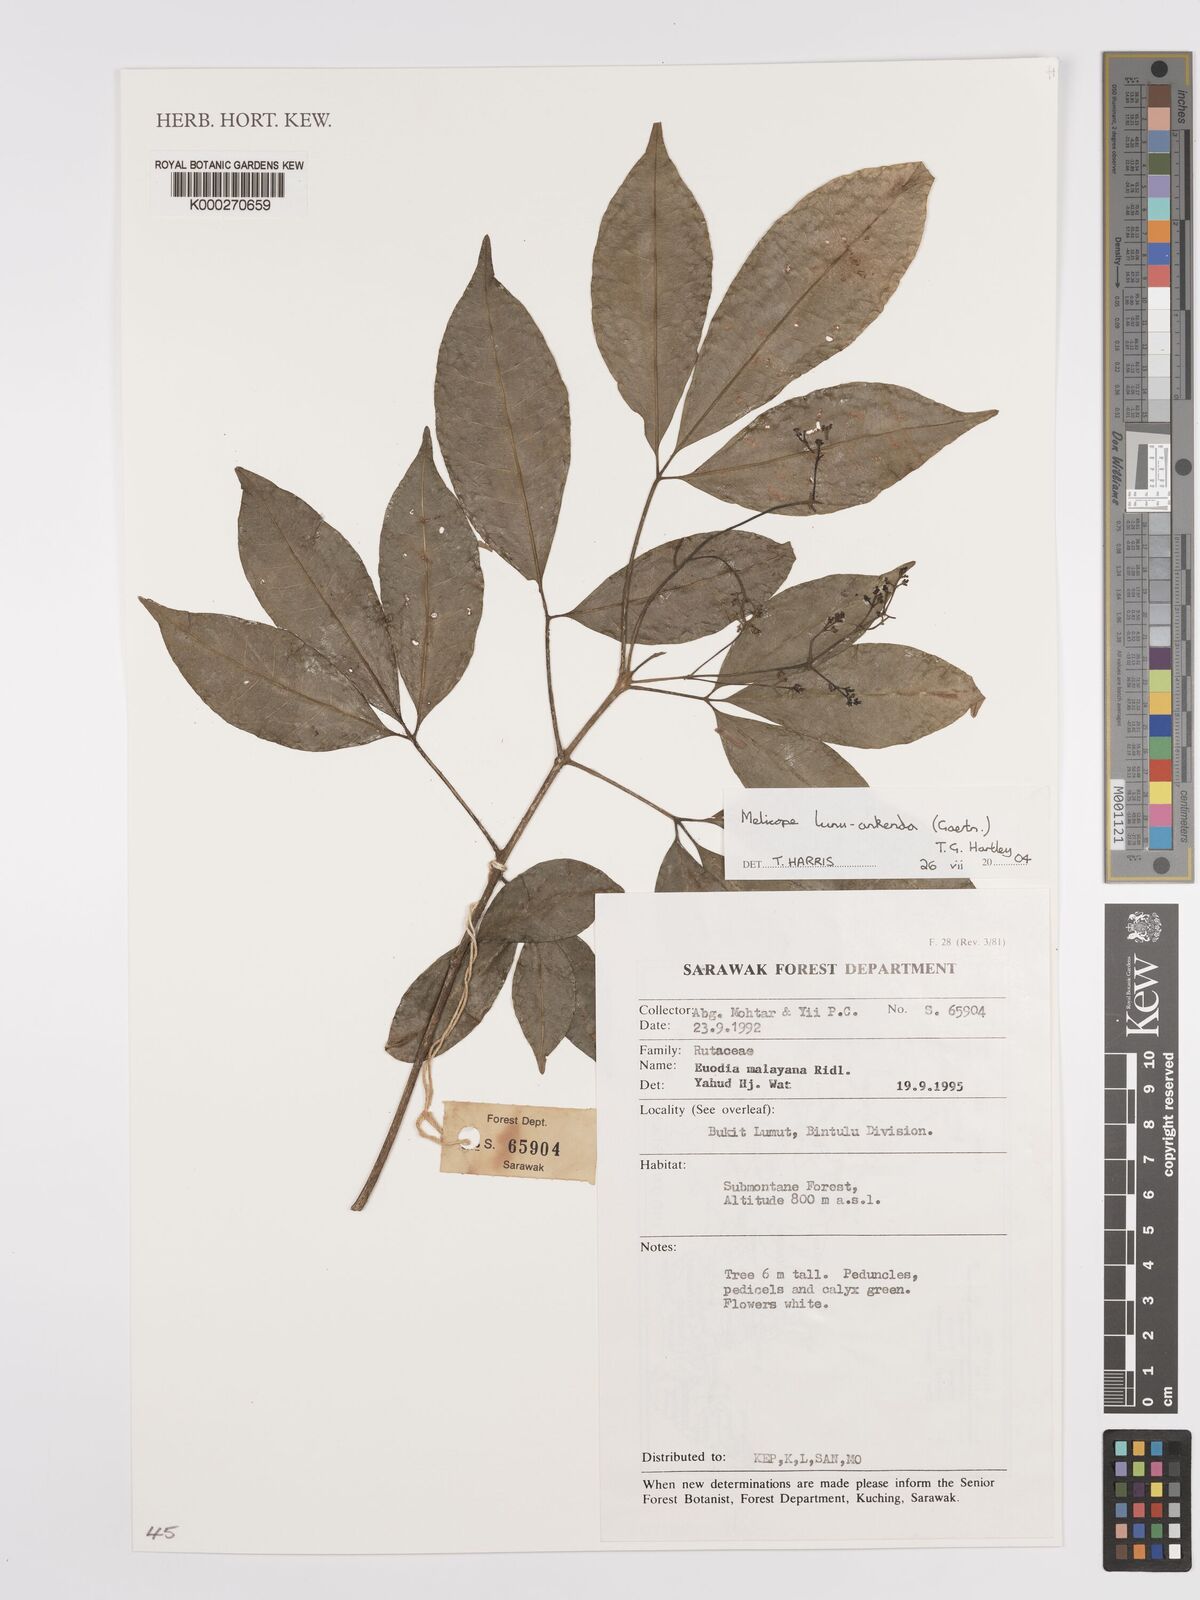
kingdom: Plantae
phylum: Tracheophyta
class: Magnoliopsida
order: Sapindales
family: Rutaceae
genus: Melicope
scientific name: Melicope lunu-ankenda
